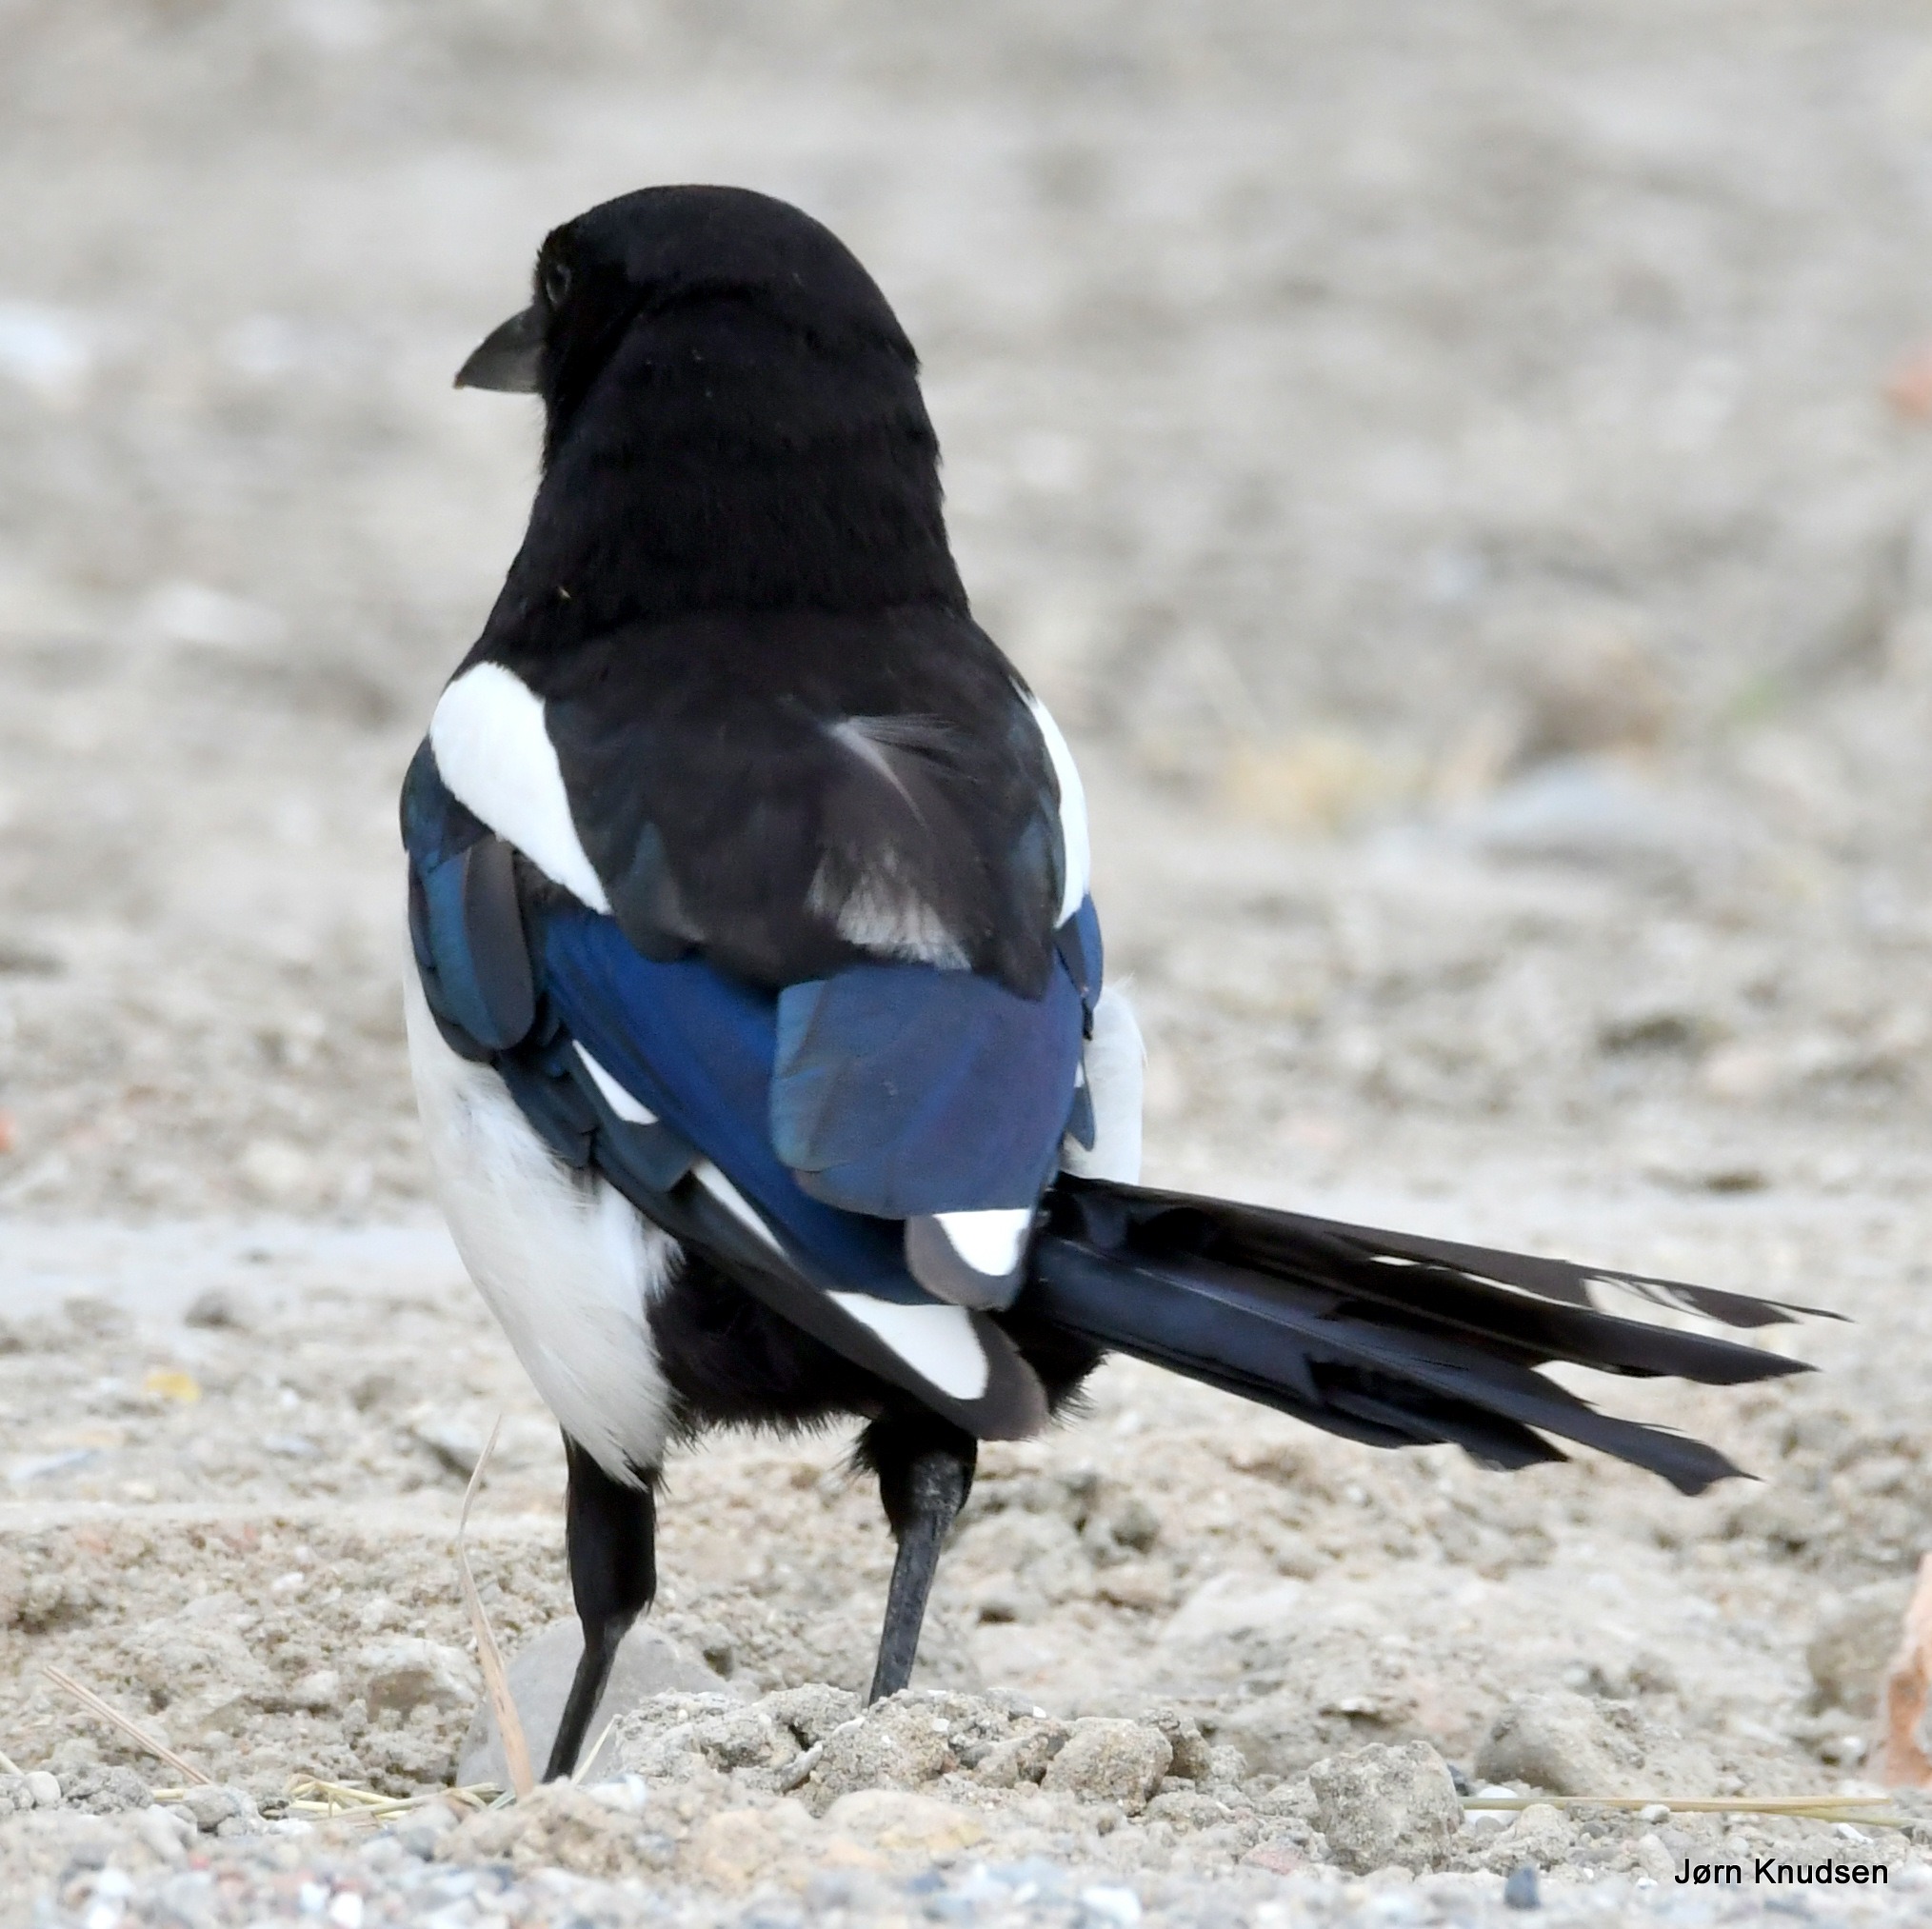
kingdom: Animalia
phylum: Chordata
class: Aves
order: Passeriformes
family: Corvidae
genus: Pica
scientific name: Pica pica
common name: Husskade
